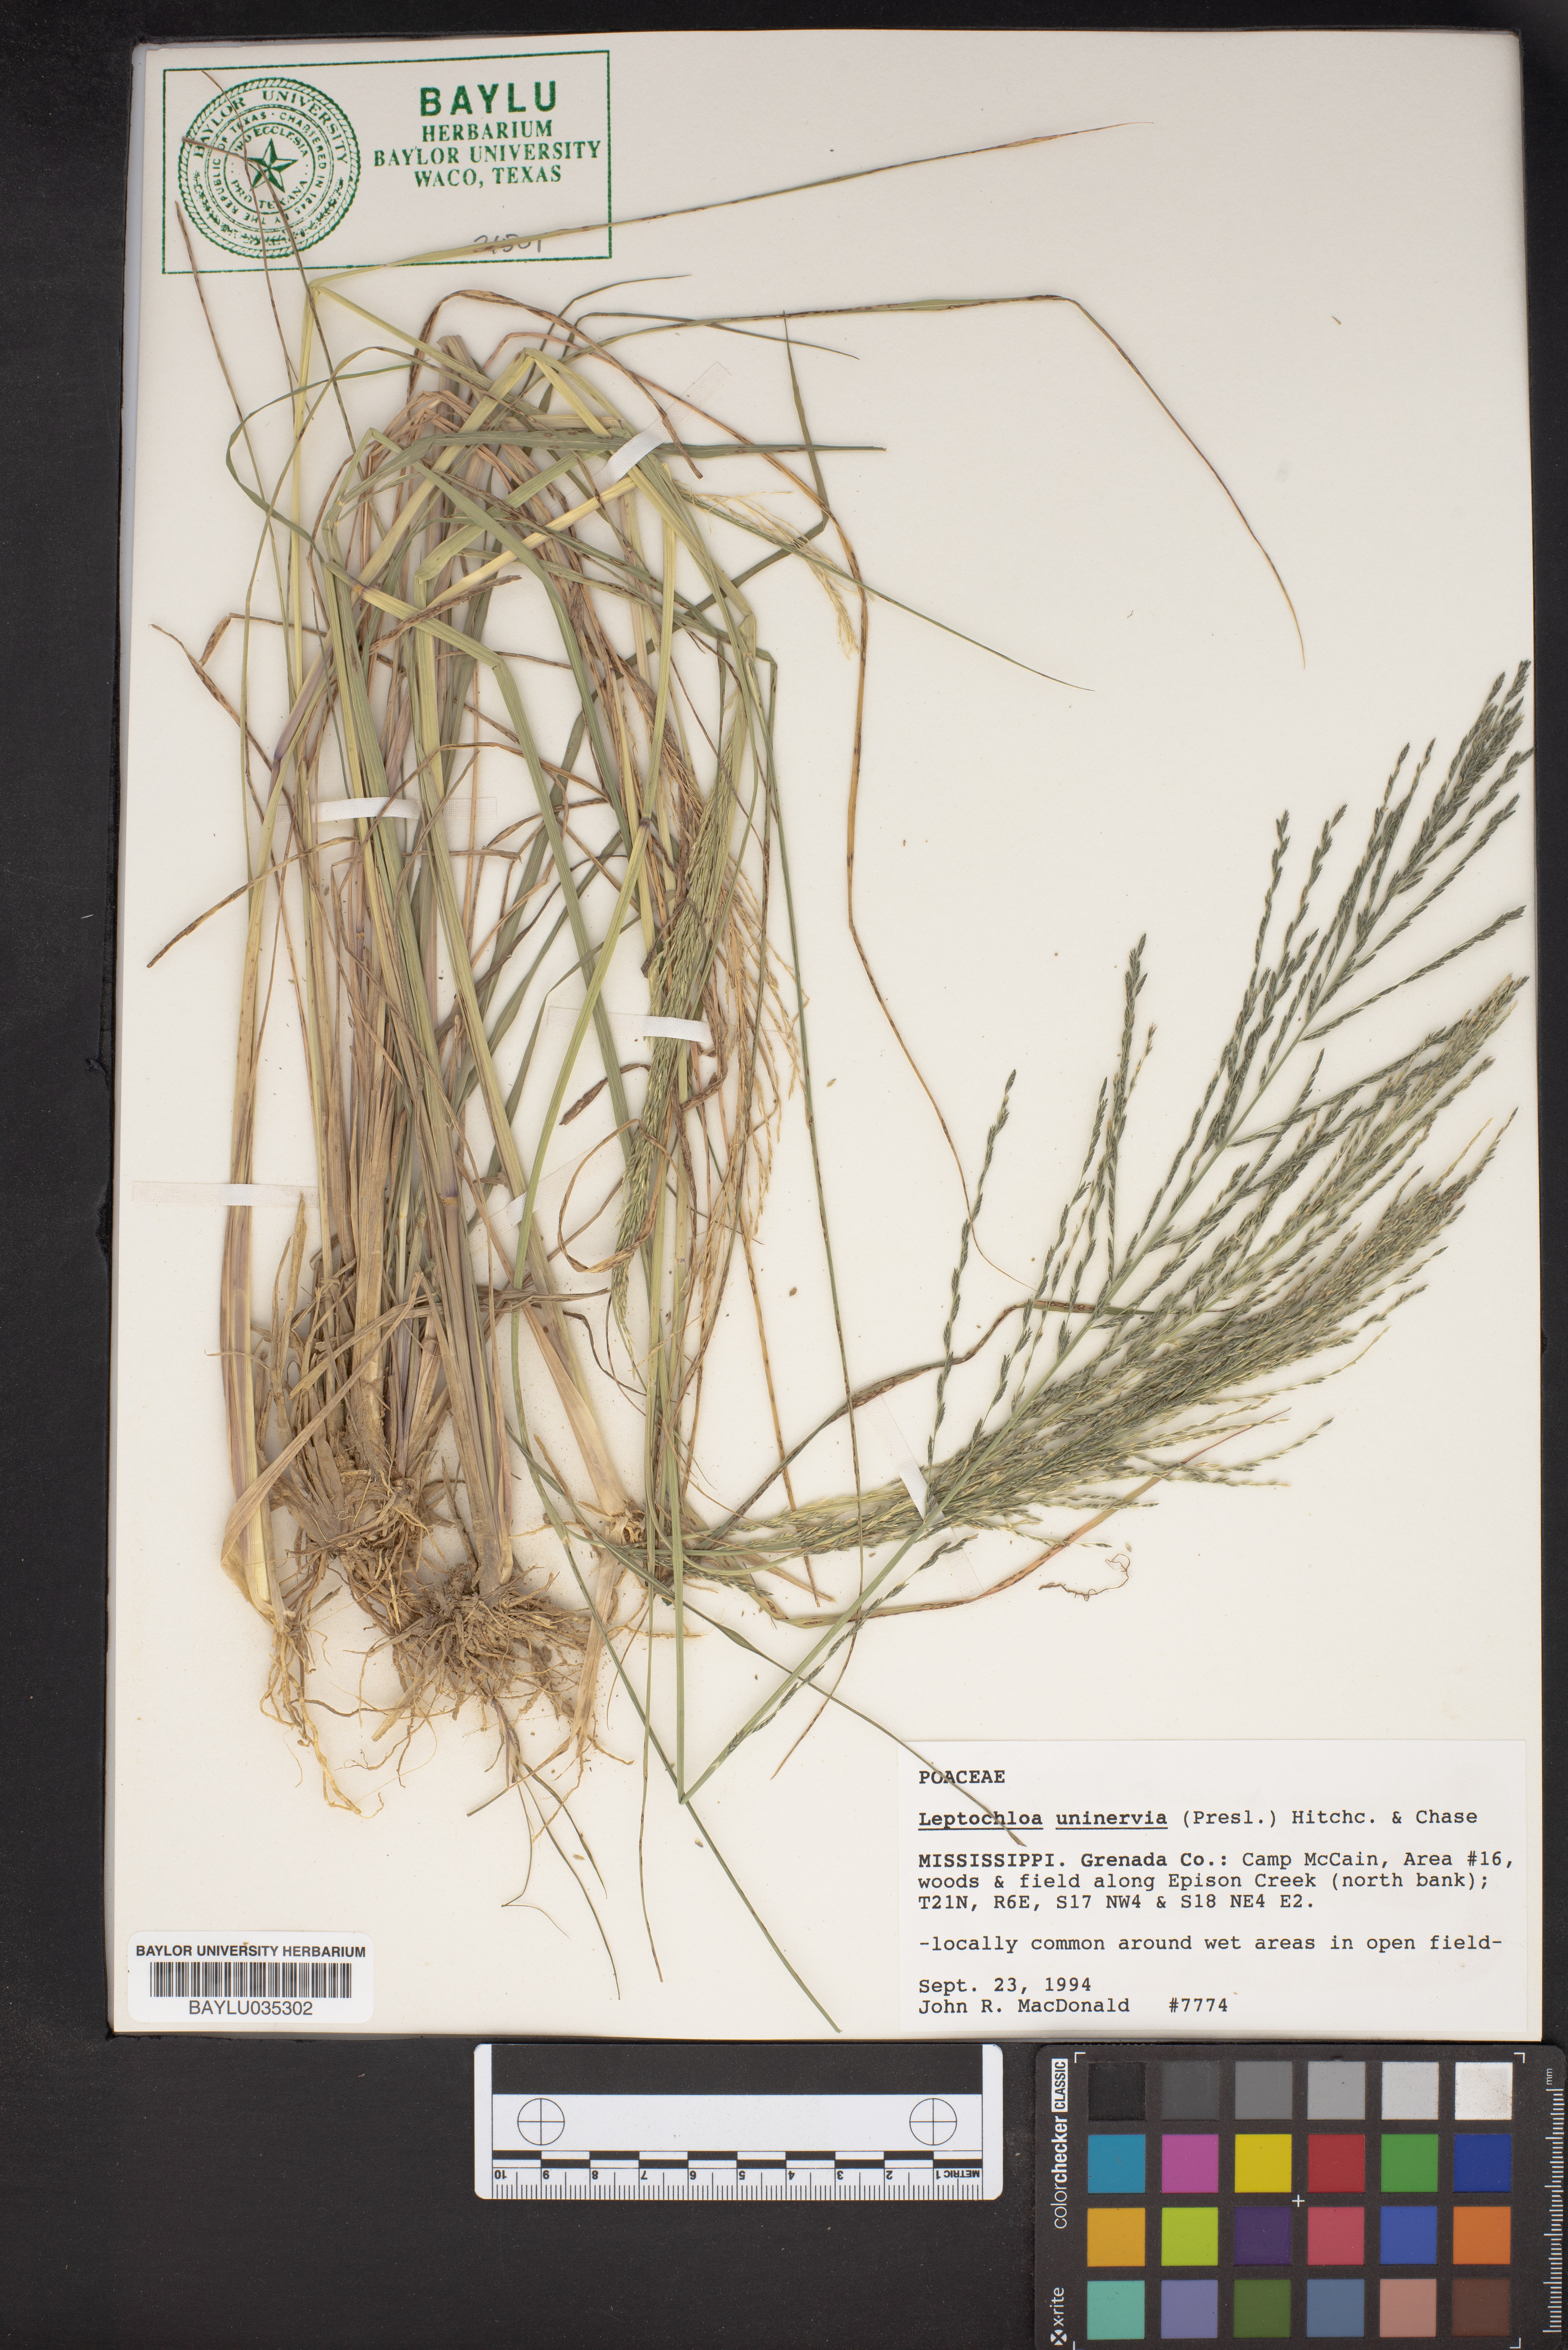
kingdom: Plantae
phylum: Tracheophyta
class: Liliopsida
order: Poales
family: Poaceae
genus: Diplachne
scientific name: Diplachne fusca
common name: Brown beetle grass
